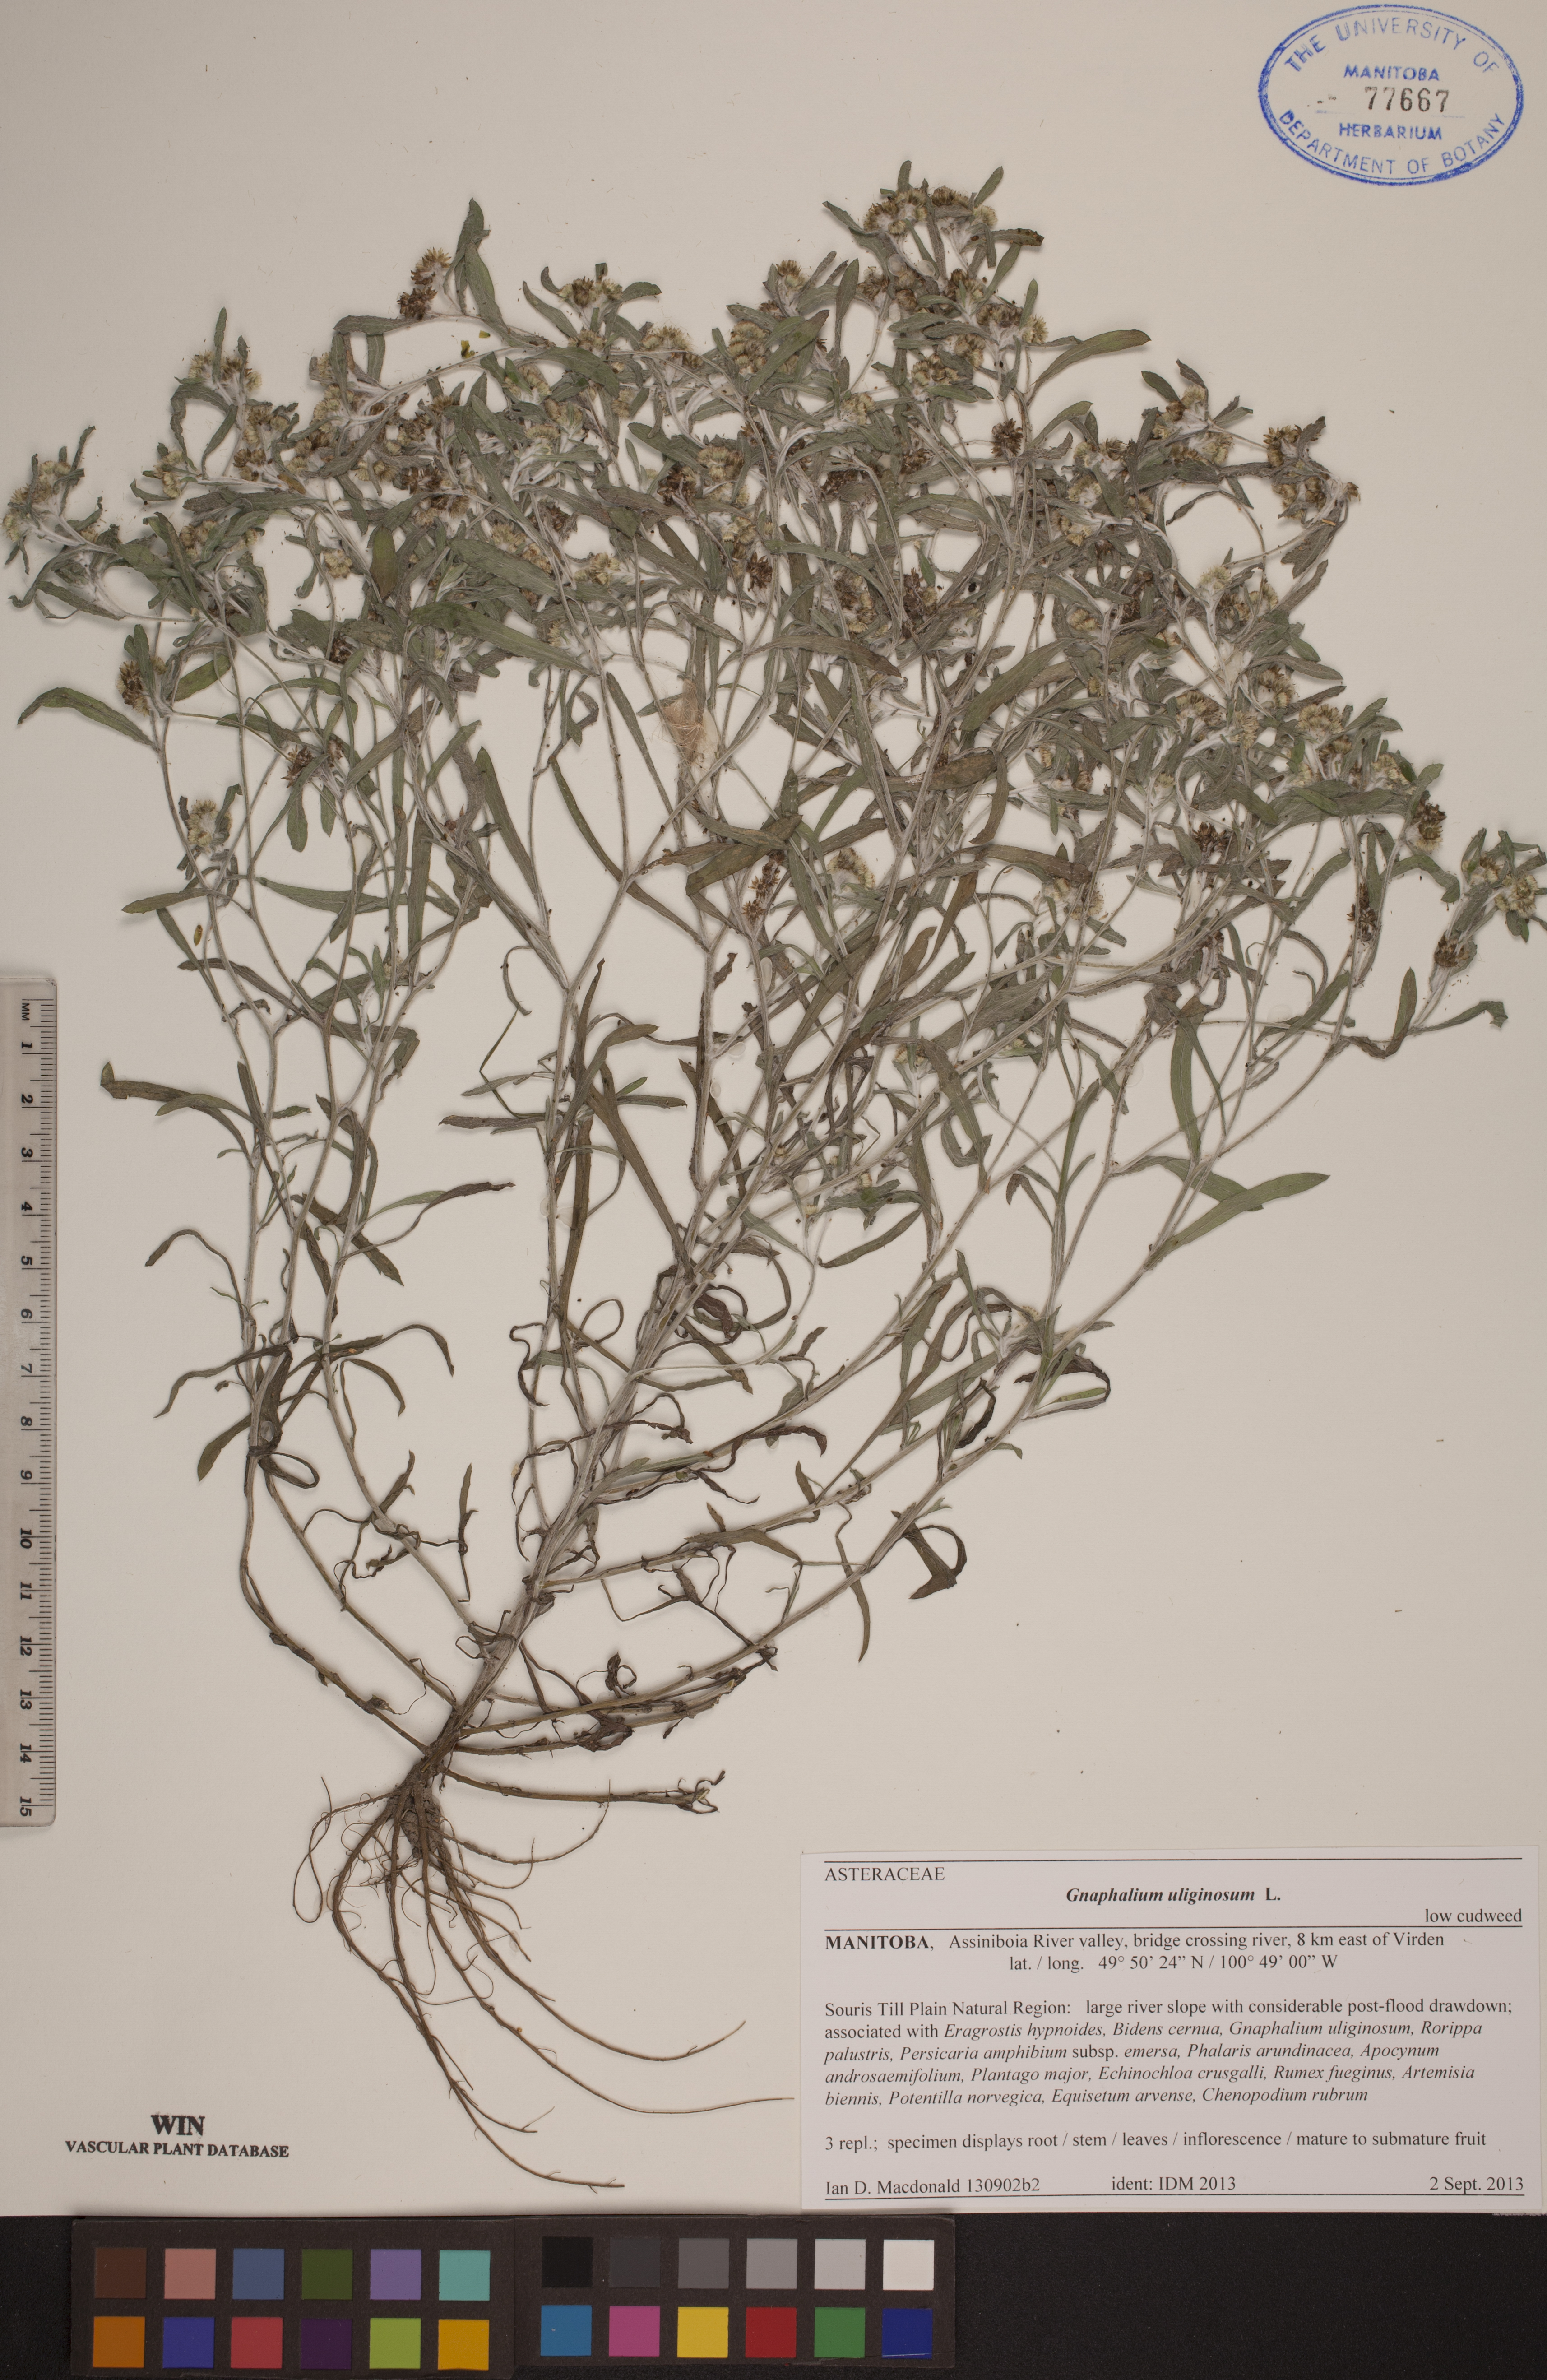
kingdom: Plantae
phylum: Tracheophyta
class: Magnoliopsida
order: Asterales
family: Asteraceae
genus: Gnaphalium
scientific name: Gnaphalium uliginosum
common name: Marsh cudweed
